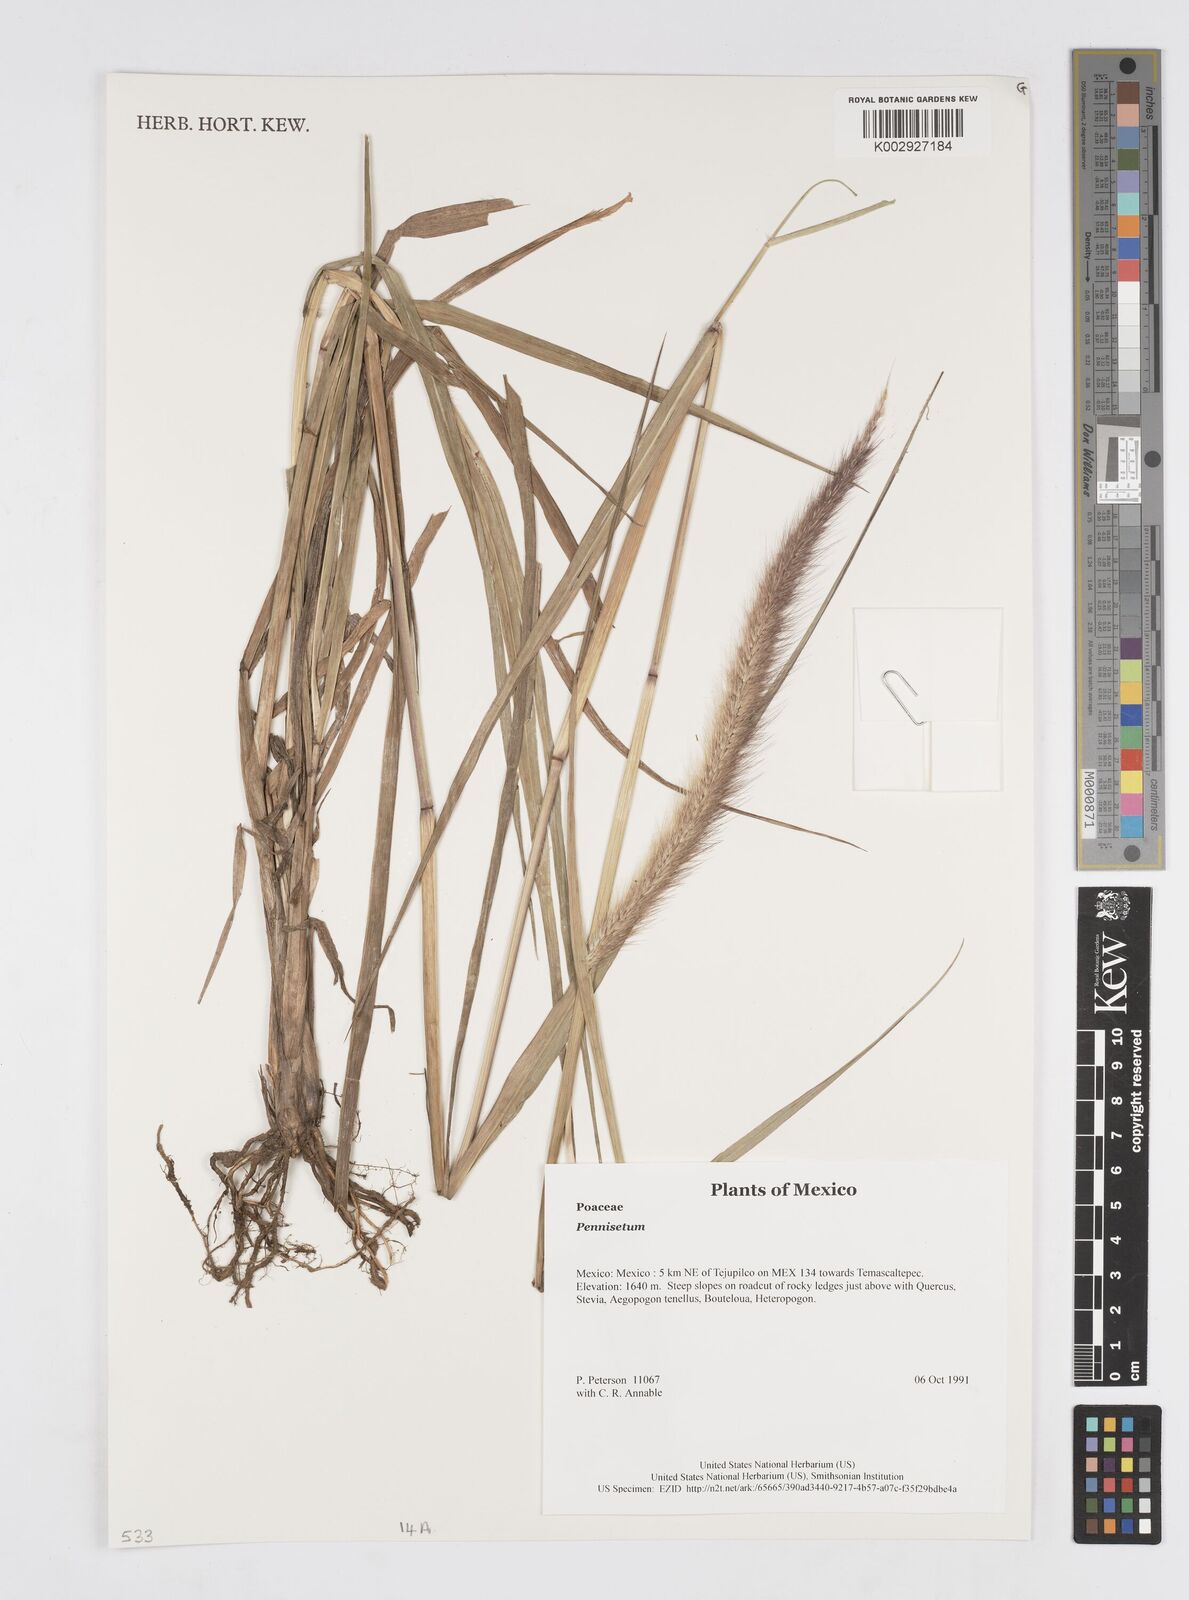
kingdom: Plantae
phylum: Tracheophyta
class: Liliopsida
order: Poales
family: Poaceae
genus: Cenchrus
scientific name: Cenchrus Pennisetum spec
